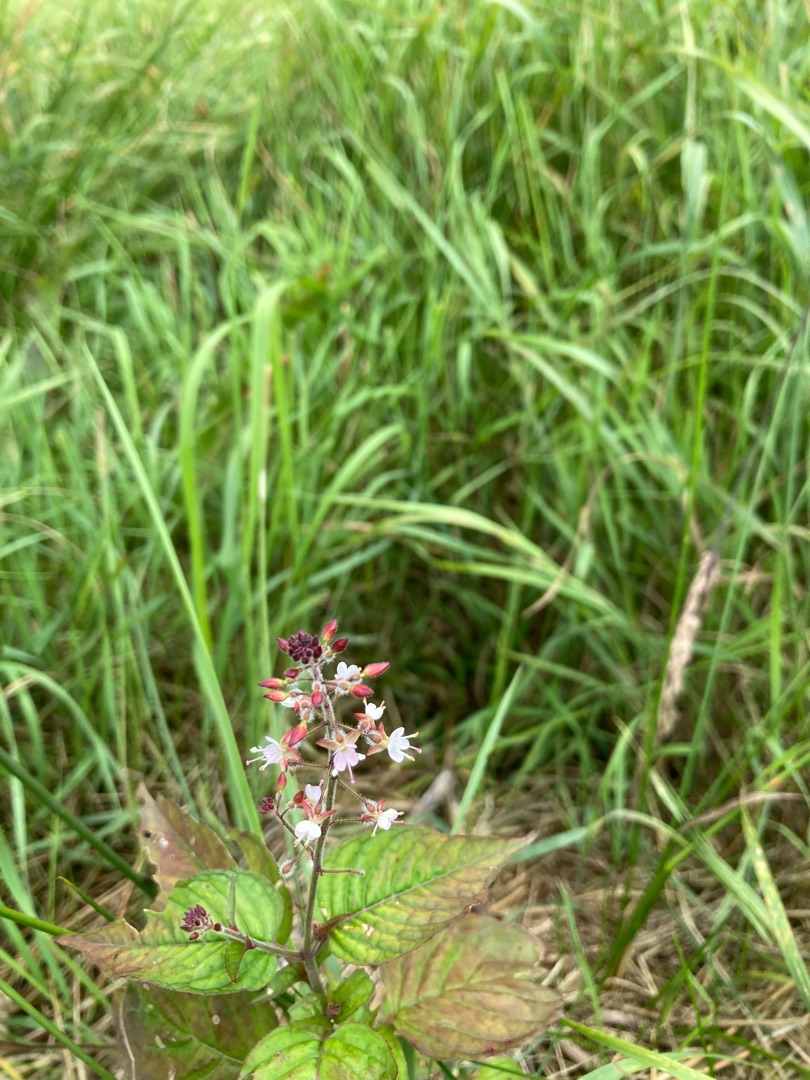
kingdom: Plantae
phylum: Tracheophyta
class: Magnoliopsida
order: Myrtales
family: Onagraceae
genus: Circaea
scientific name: Circaea lutetiana
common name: Dunet steffensurt
